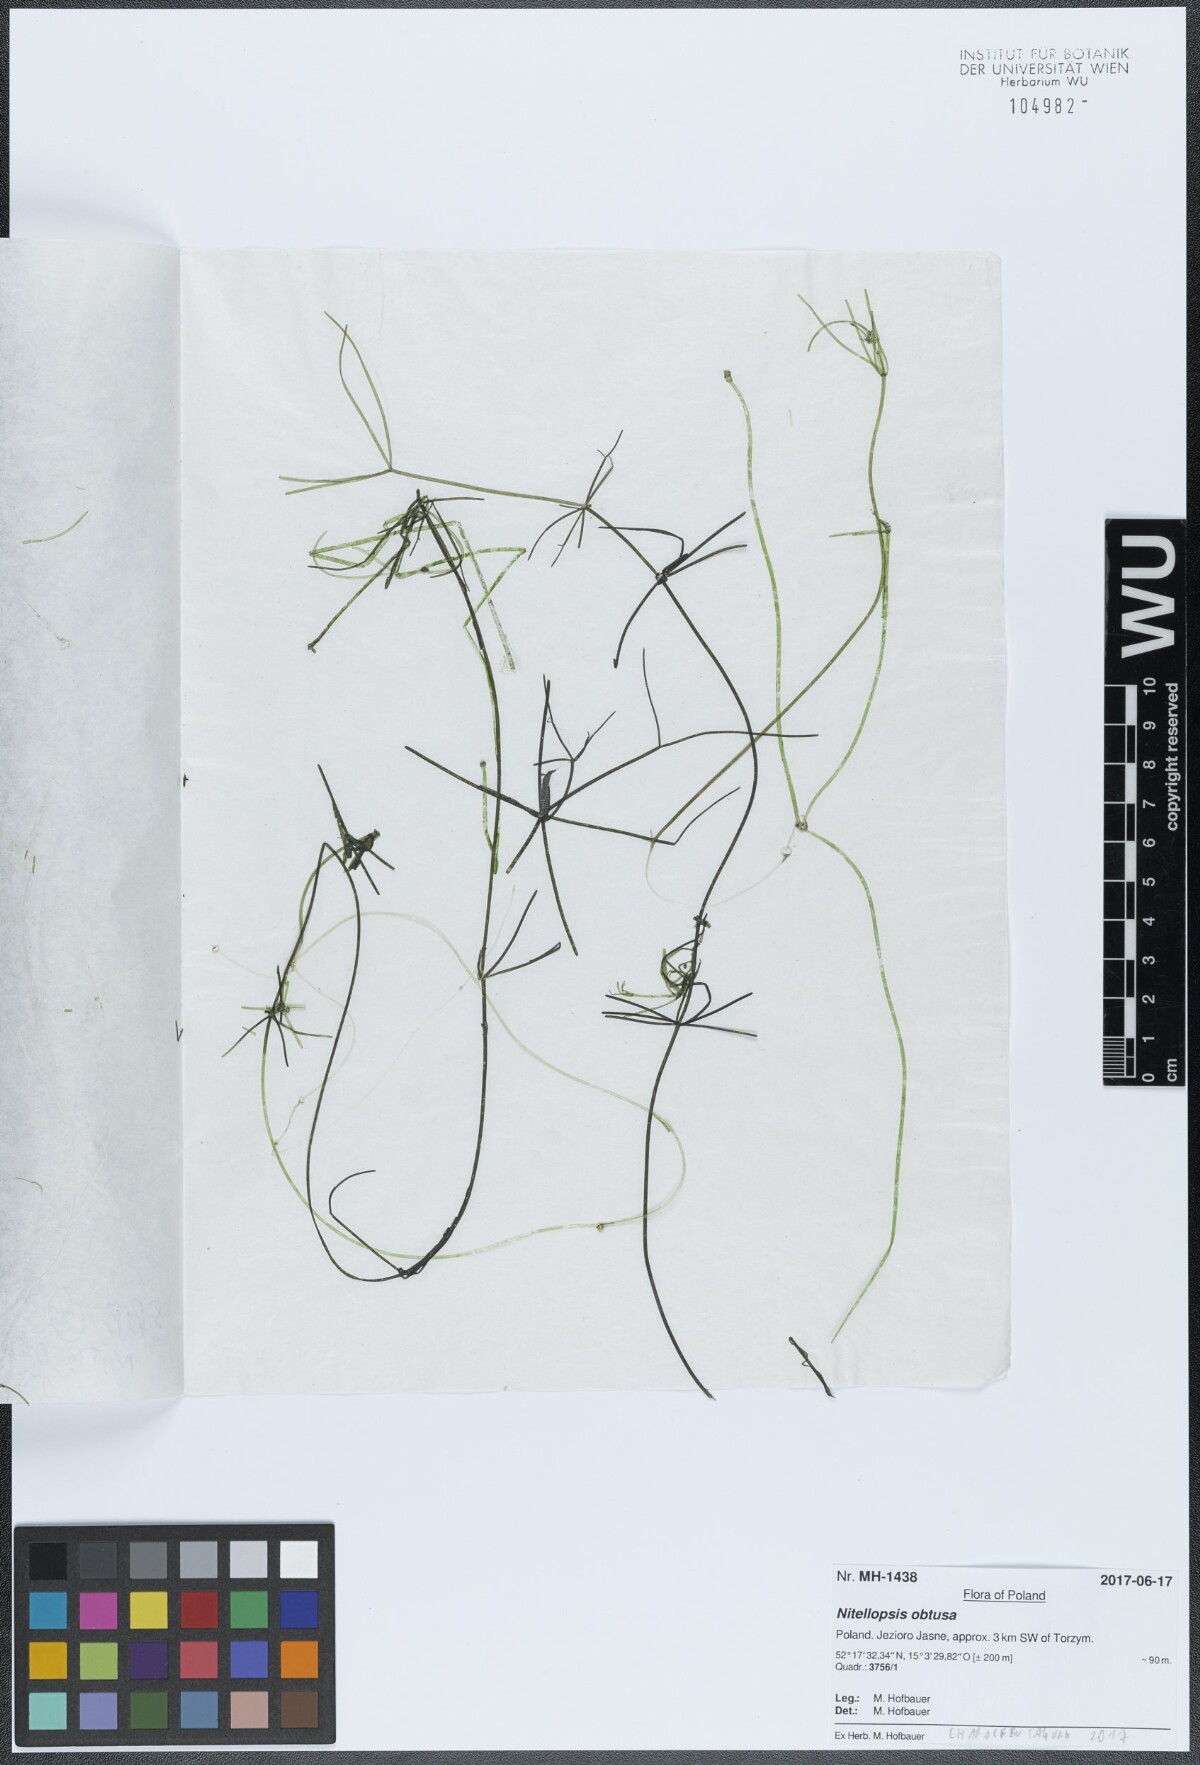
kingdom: Plantae
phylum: Charophyta
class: Charophyceae
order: Charales
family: Characeae
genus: Nitellopsis
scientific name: Nitellopsis obtusa
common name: Starry stonewort
